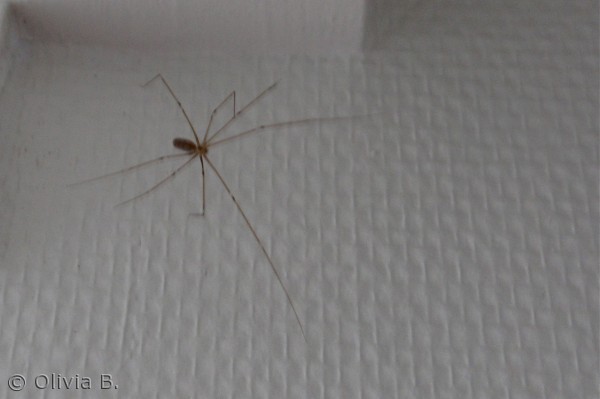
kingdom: Animalia
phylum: Arthropoda
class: Arachnida
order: Araneae
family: Pholcidae
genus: Pholcus
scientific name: Pholcus phalangioides
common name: Mejeredderkop
